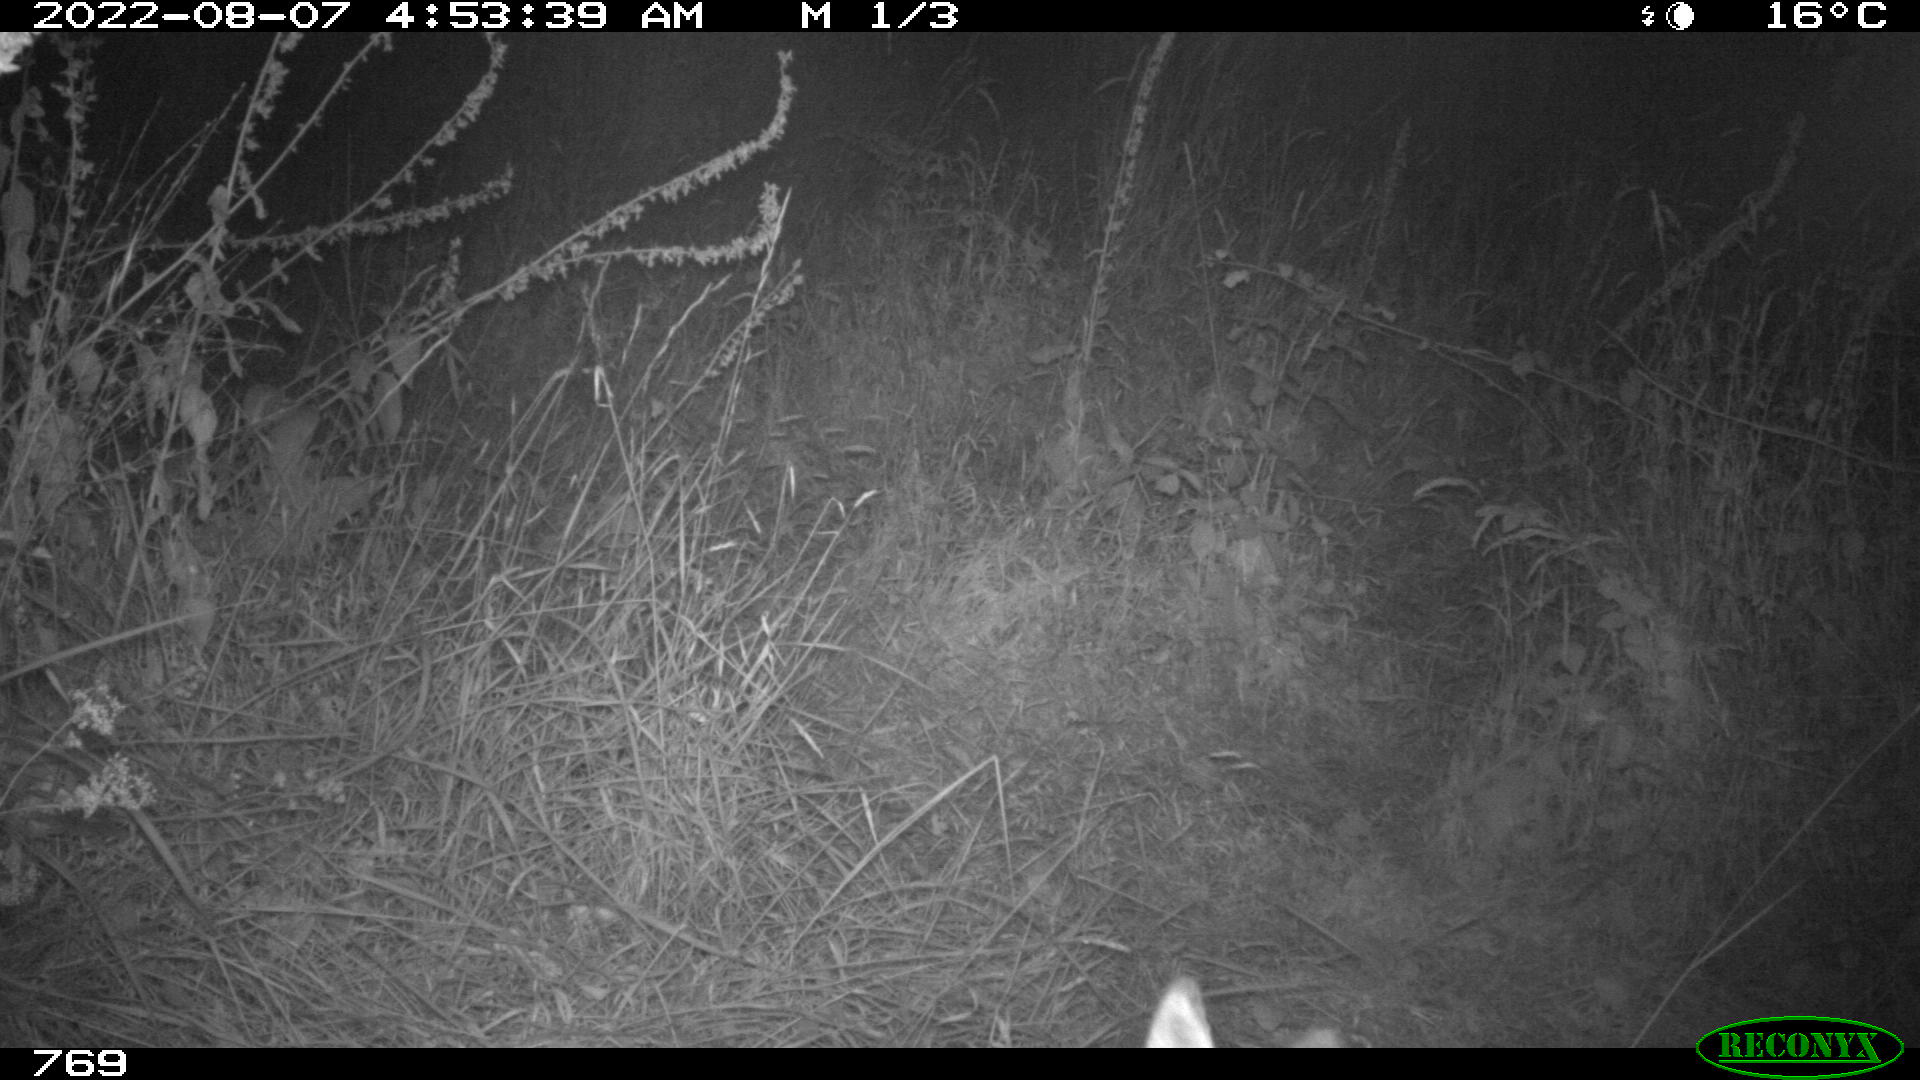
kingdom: Animalia
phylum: Chordata
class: Mammalia
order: Artiodactyla
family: Cervidae
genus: Capreolus
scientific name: Capreolus capreolus
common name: Western roe deer
